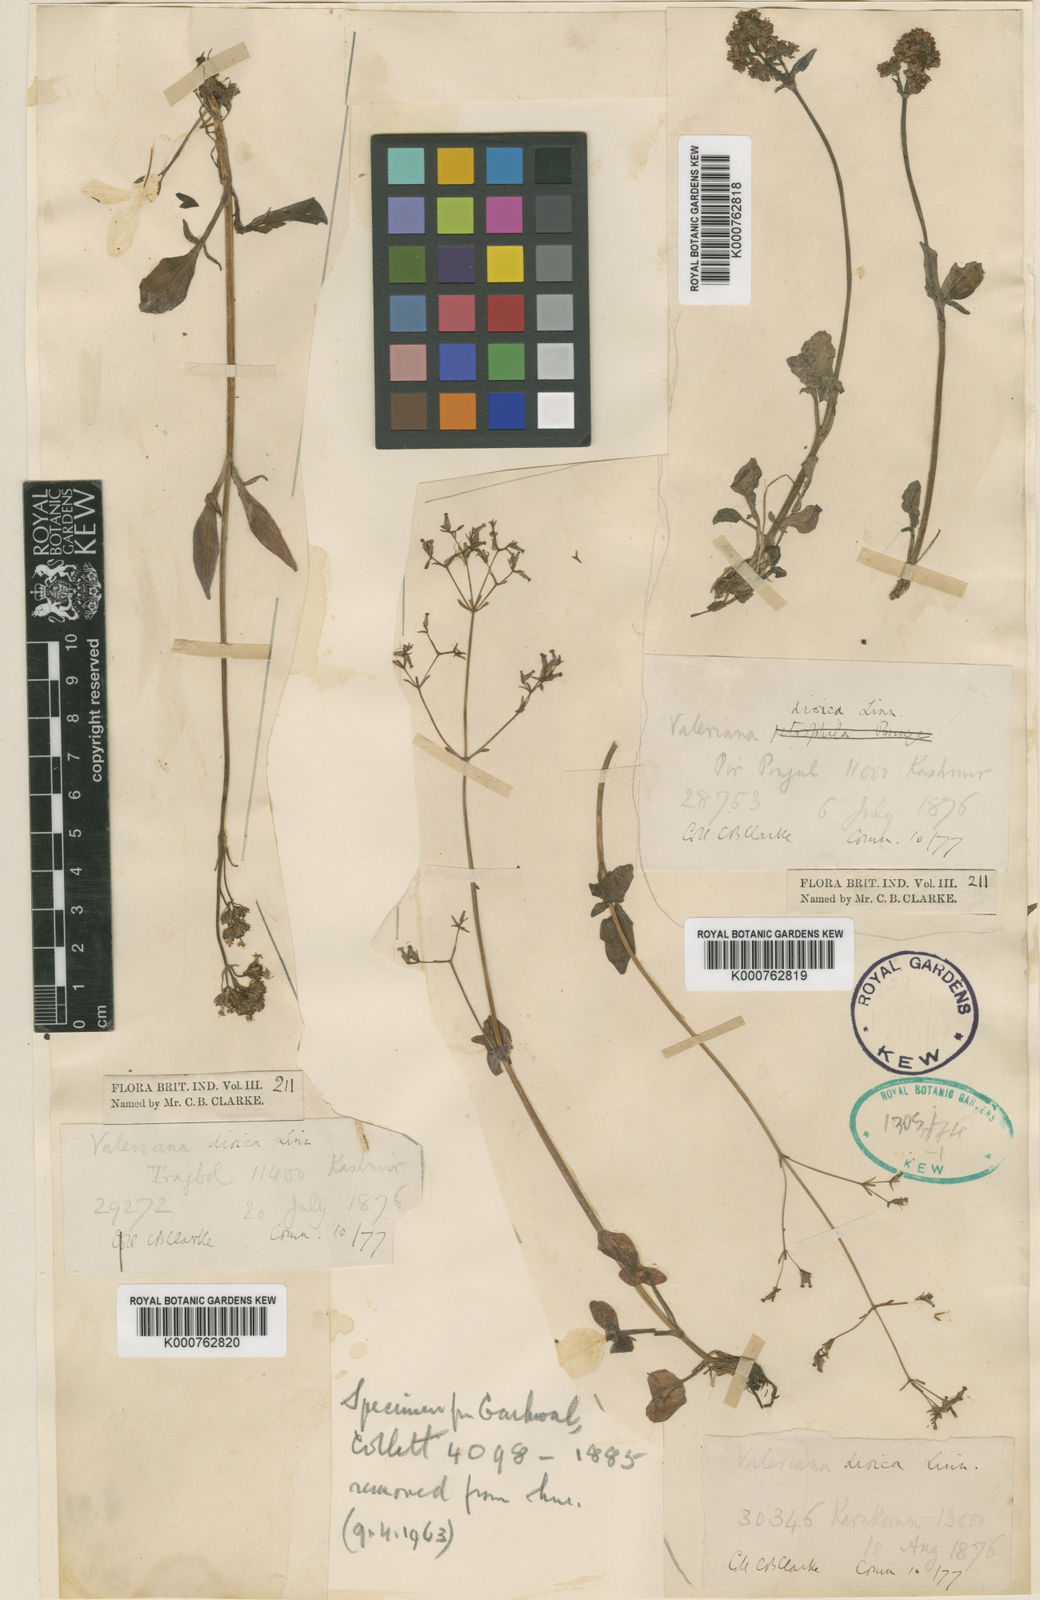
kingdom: Plantae
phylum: Tracheophyta
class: Magnoliopsida
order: Dipsacales
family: Caprifoliaceae
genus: Valeriana
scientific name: Valeriana beddomei
